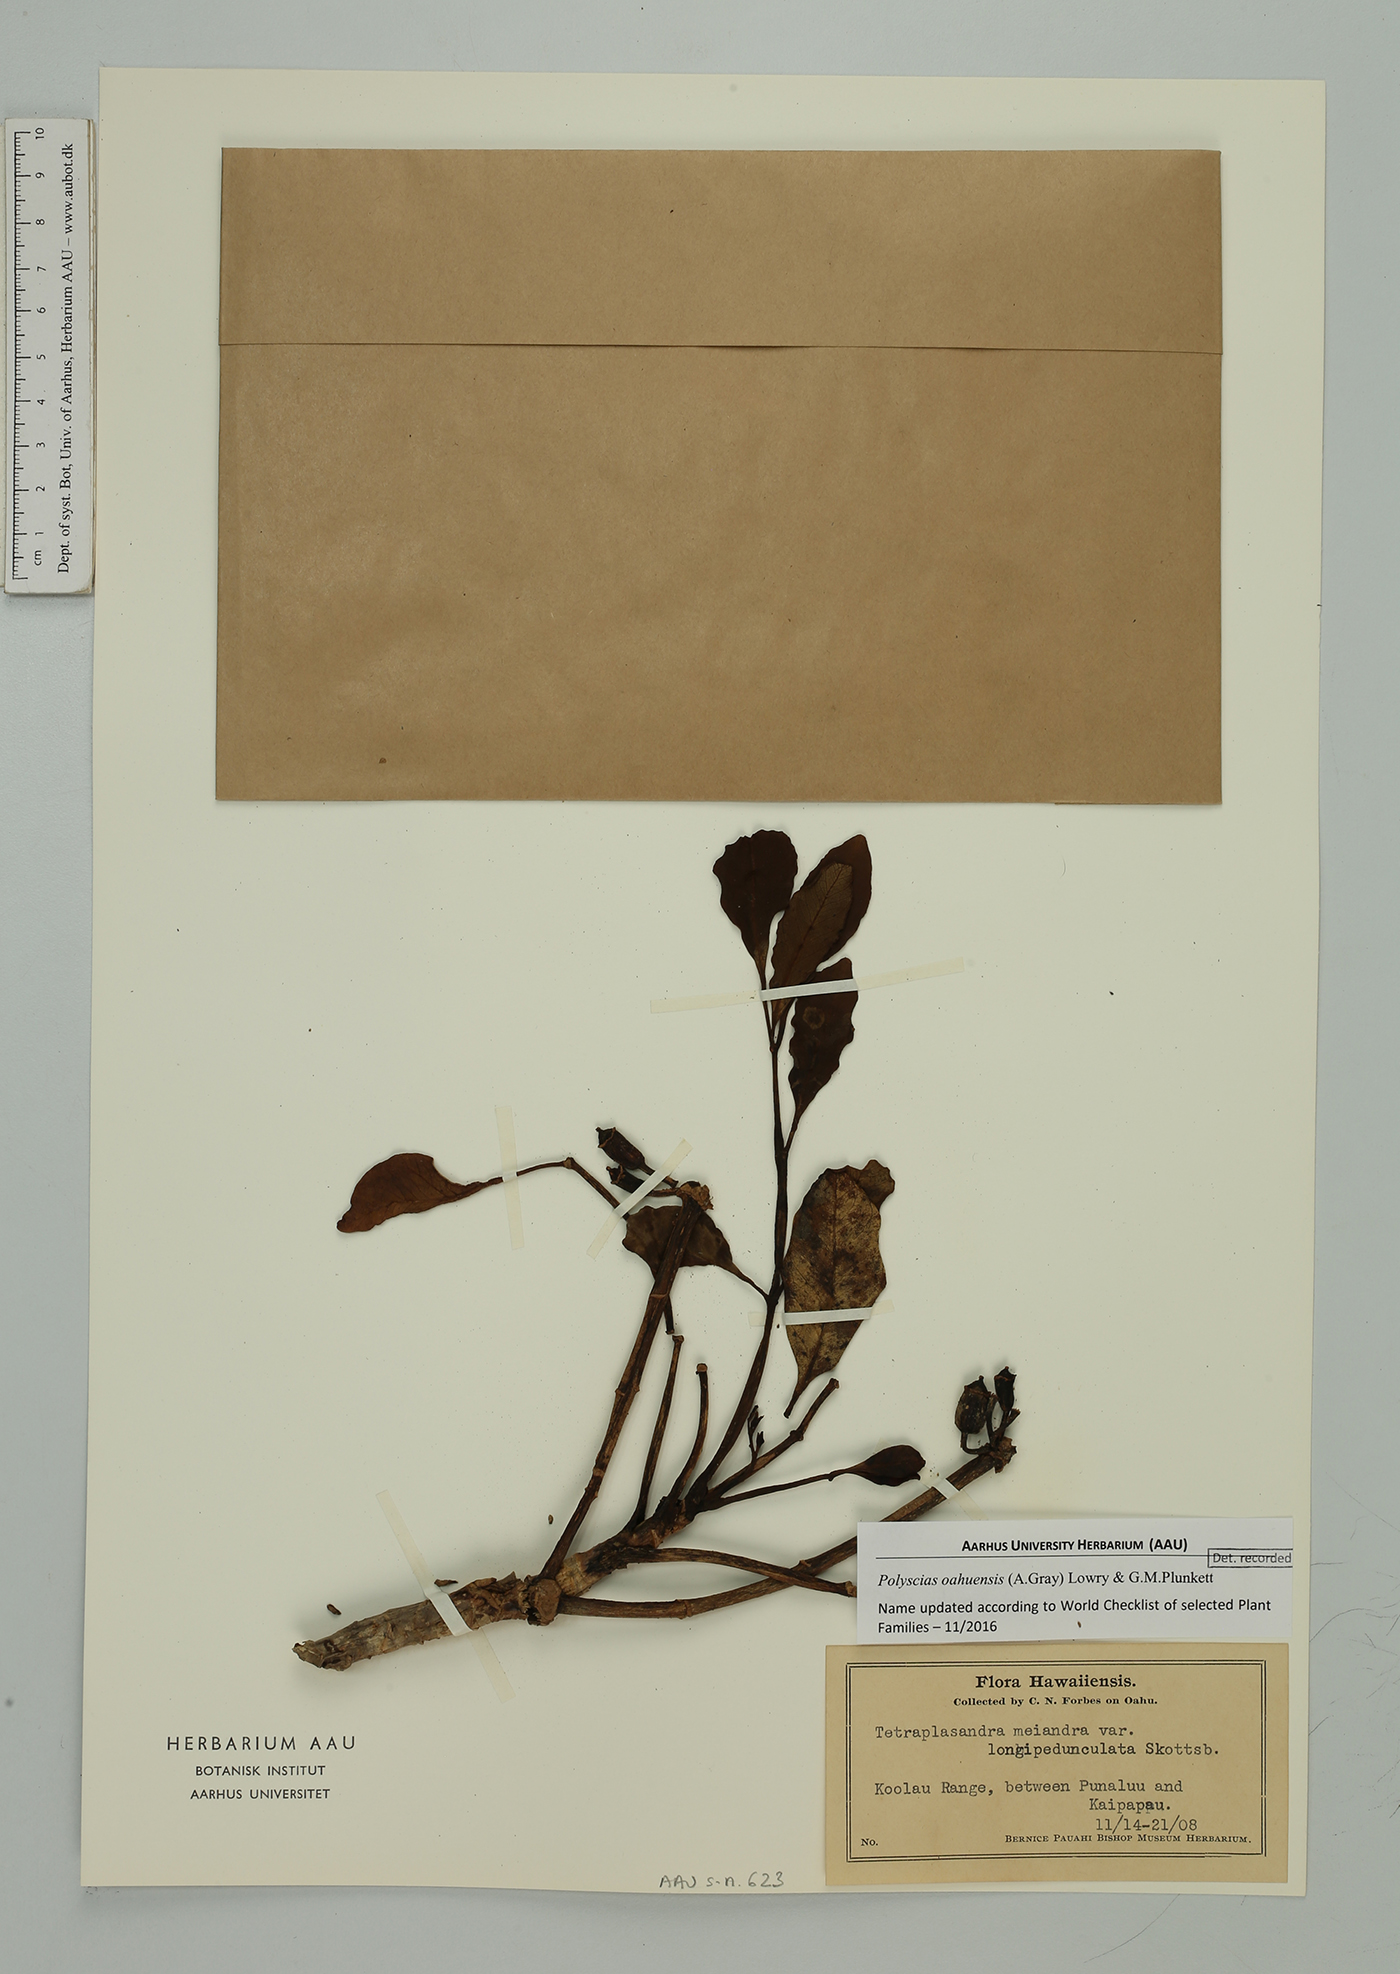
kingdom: Plantae
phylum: Tracheophyta
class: Magnoliopsida
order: Apiales
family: Araliaceae
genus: Polyscias
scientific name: Polyscias oahuensis
